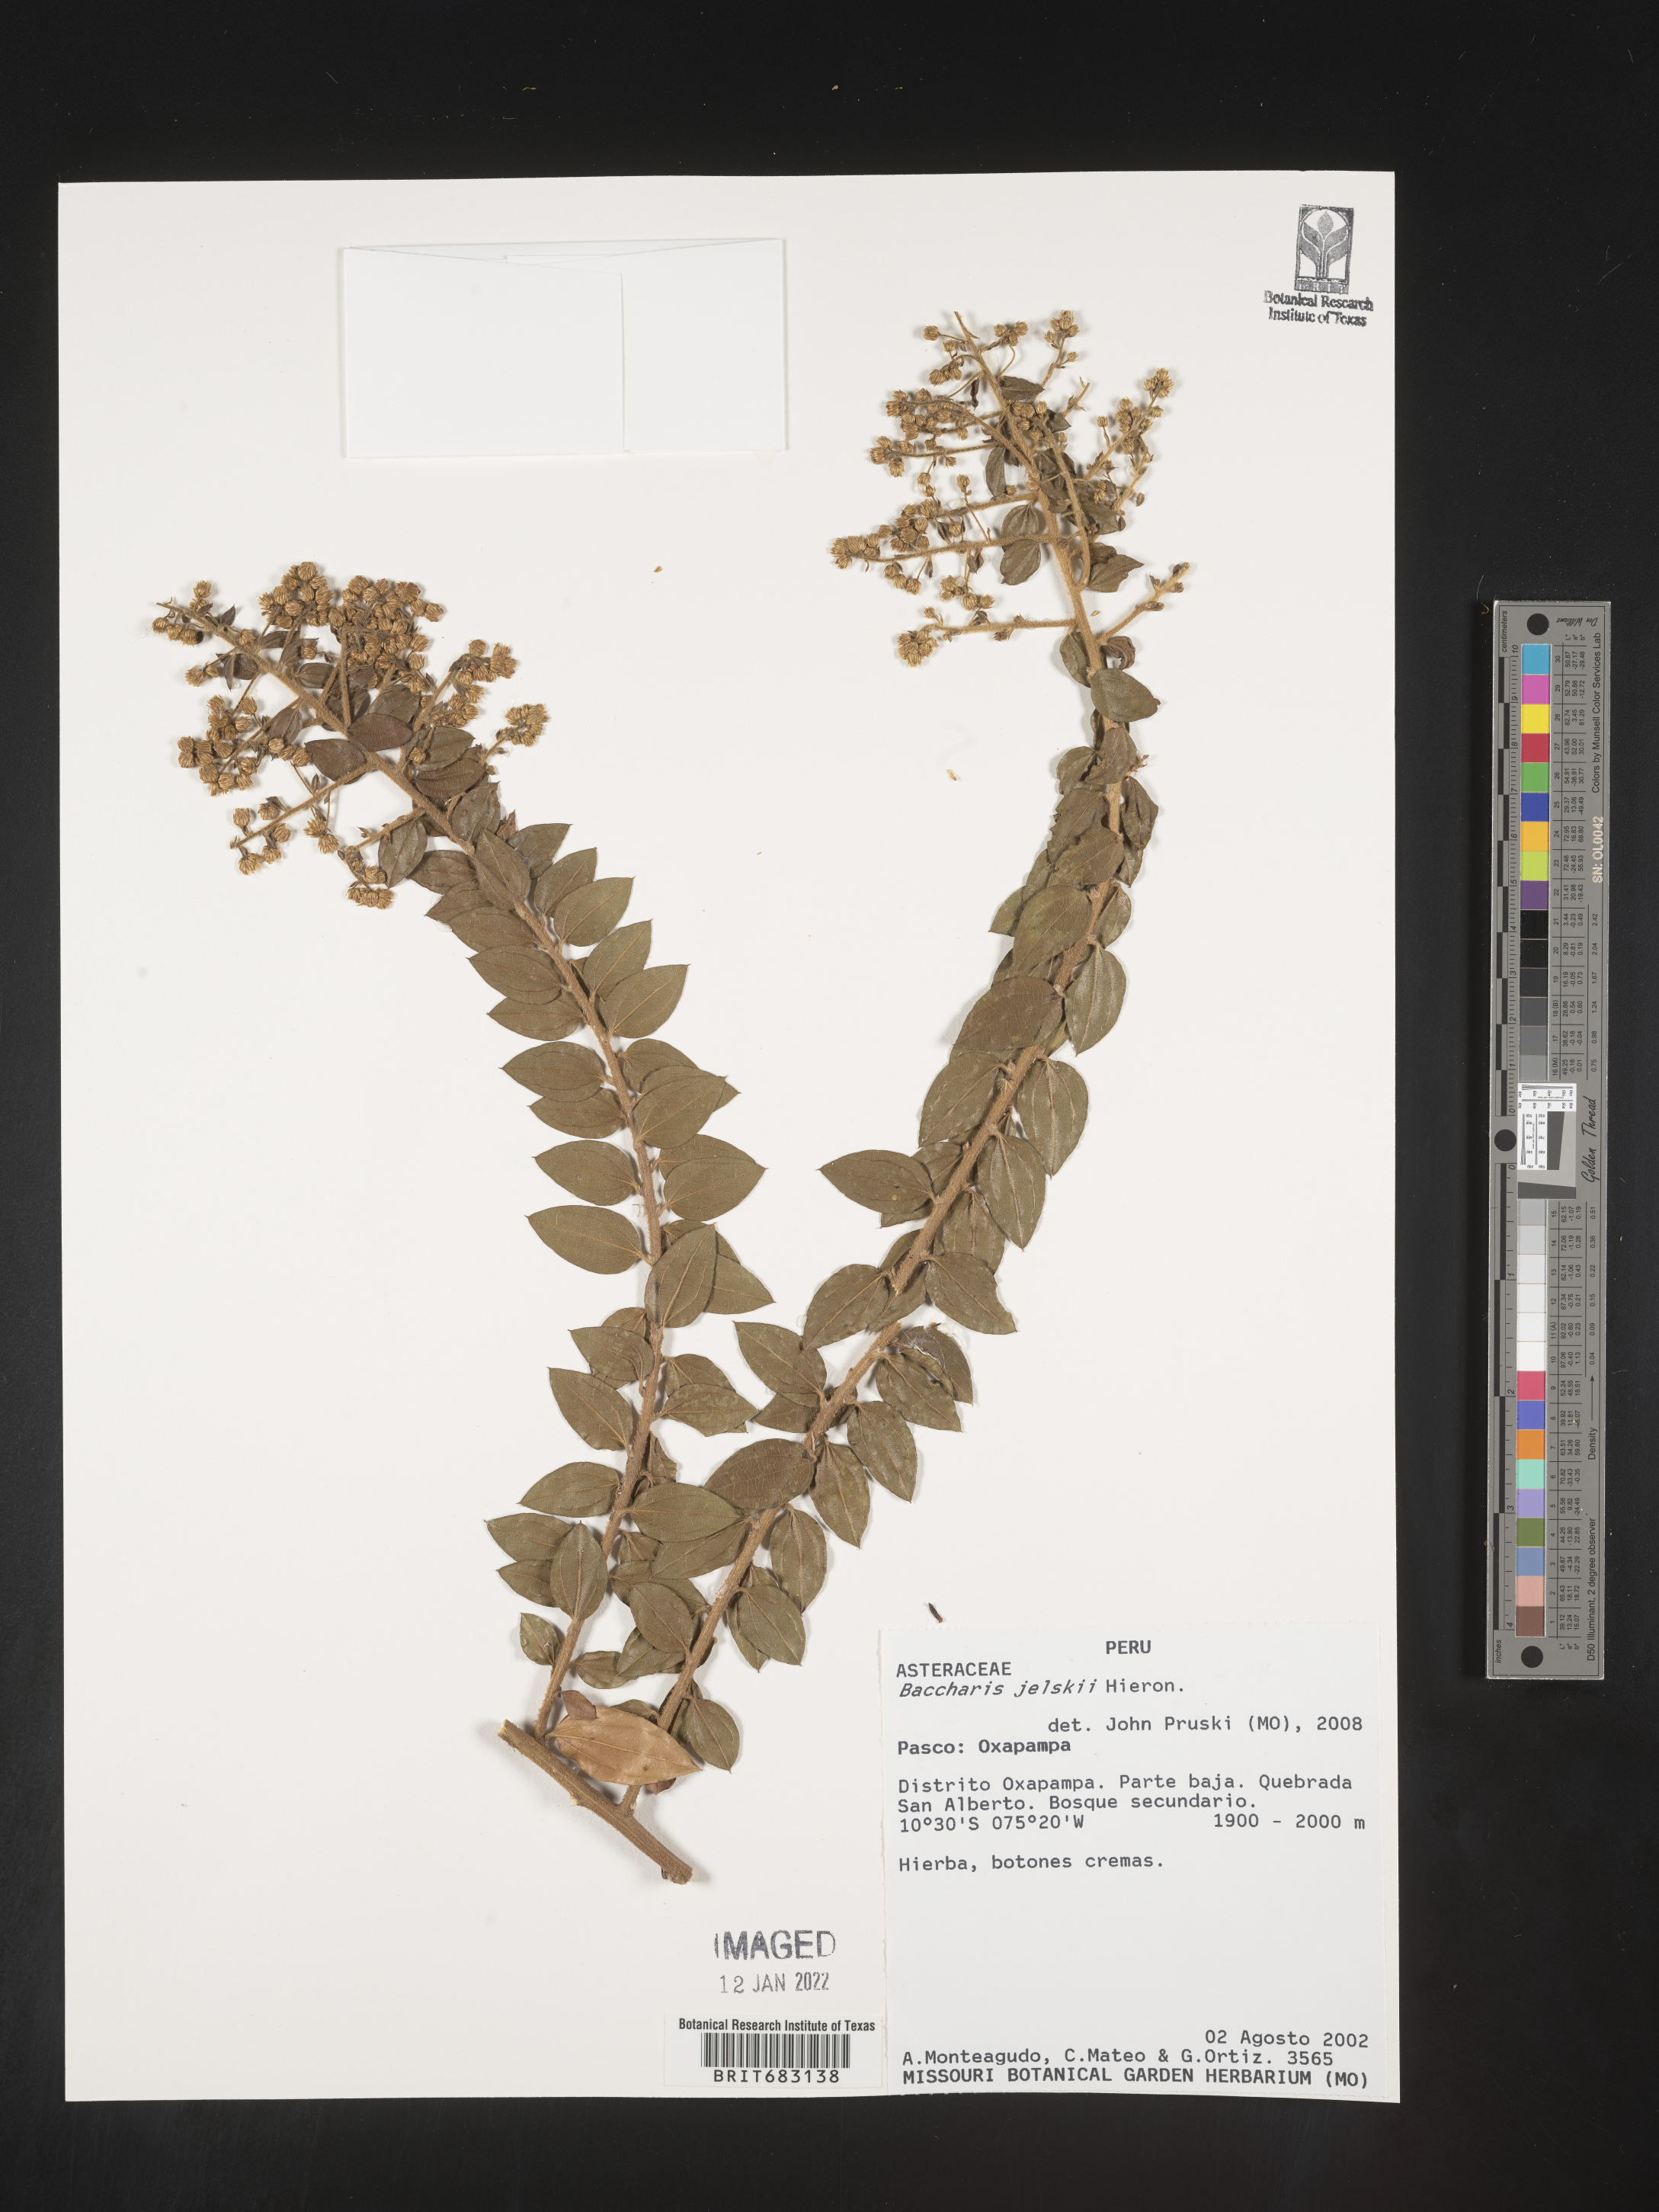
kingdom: Plantae
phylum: Tracheophyta
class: Magnoliopsida
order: Asterales
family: Asteraceae
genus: Baccharis
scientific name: Baccharis
